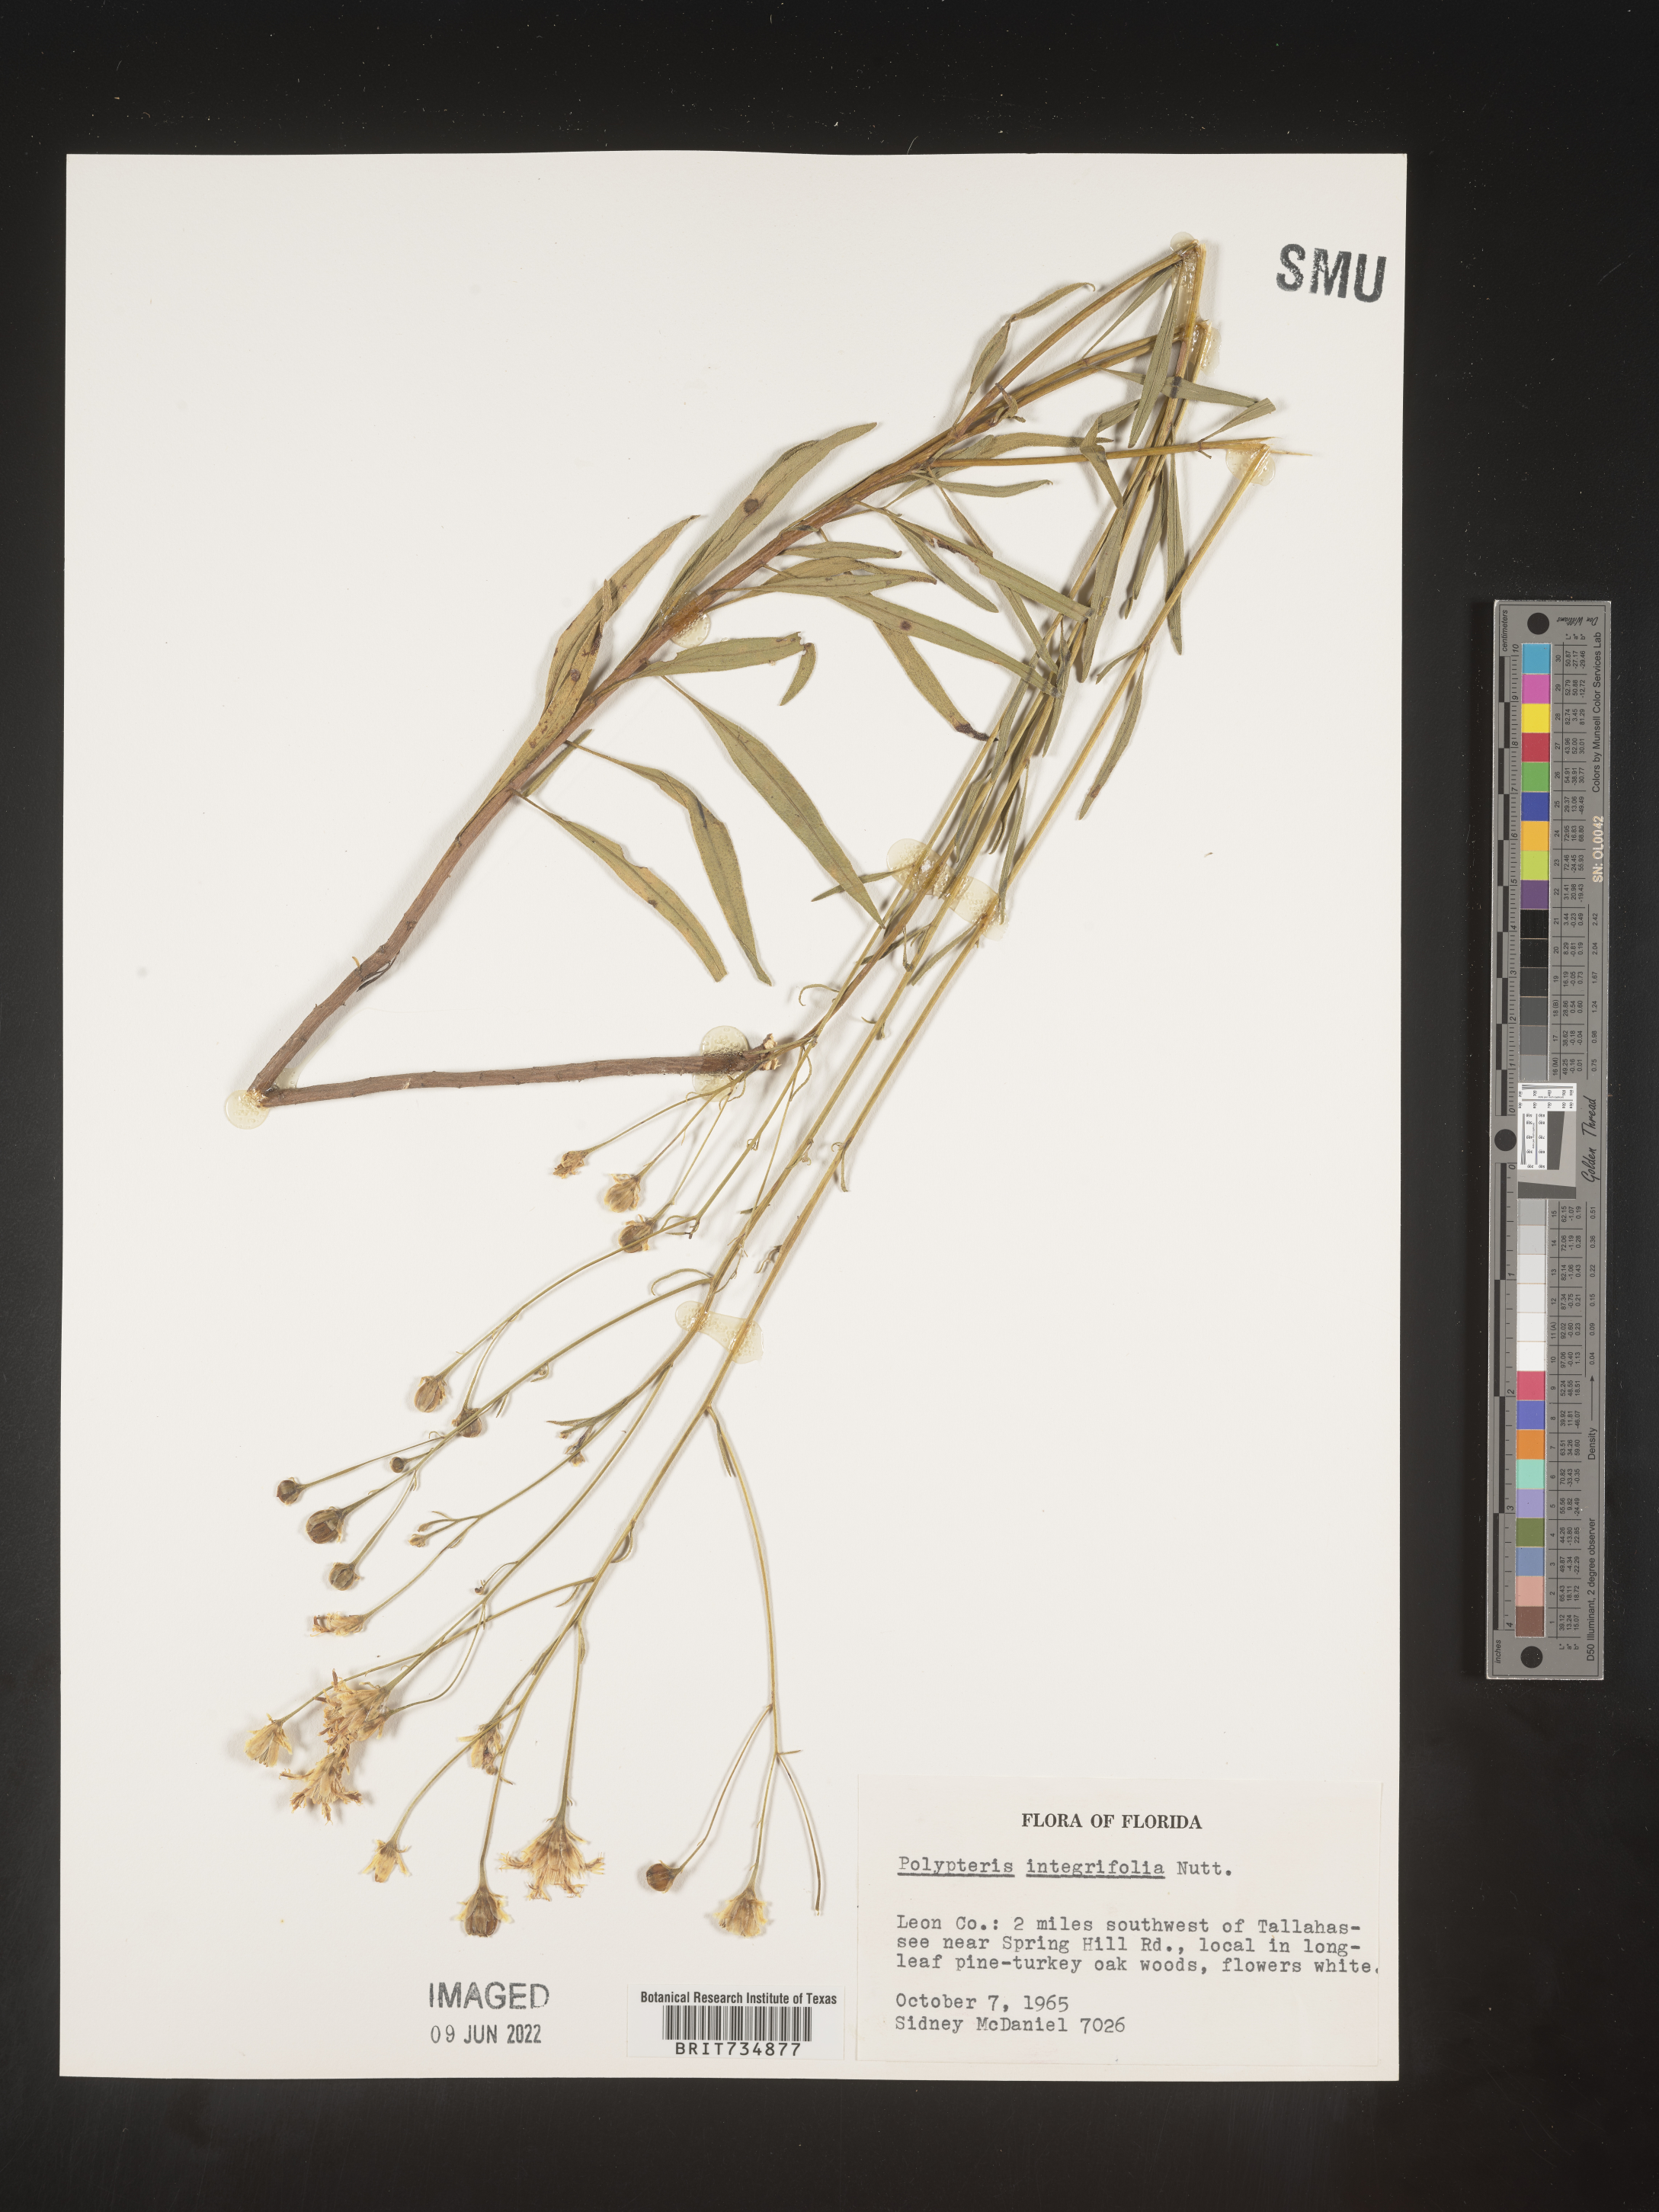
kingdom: Plantae
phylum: Tracheophyta
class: Magnoliopsida
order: Asterales
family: Asteraceae
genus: Palafoxia
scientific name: Palafoxia integrifolia
